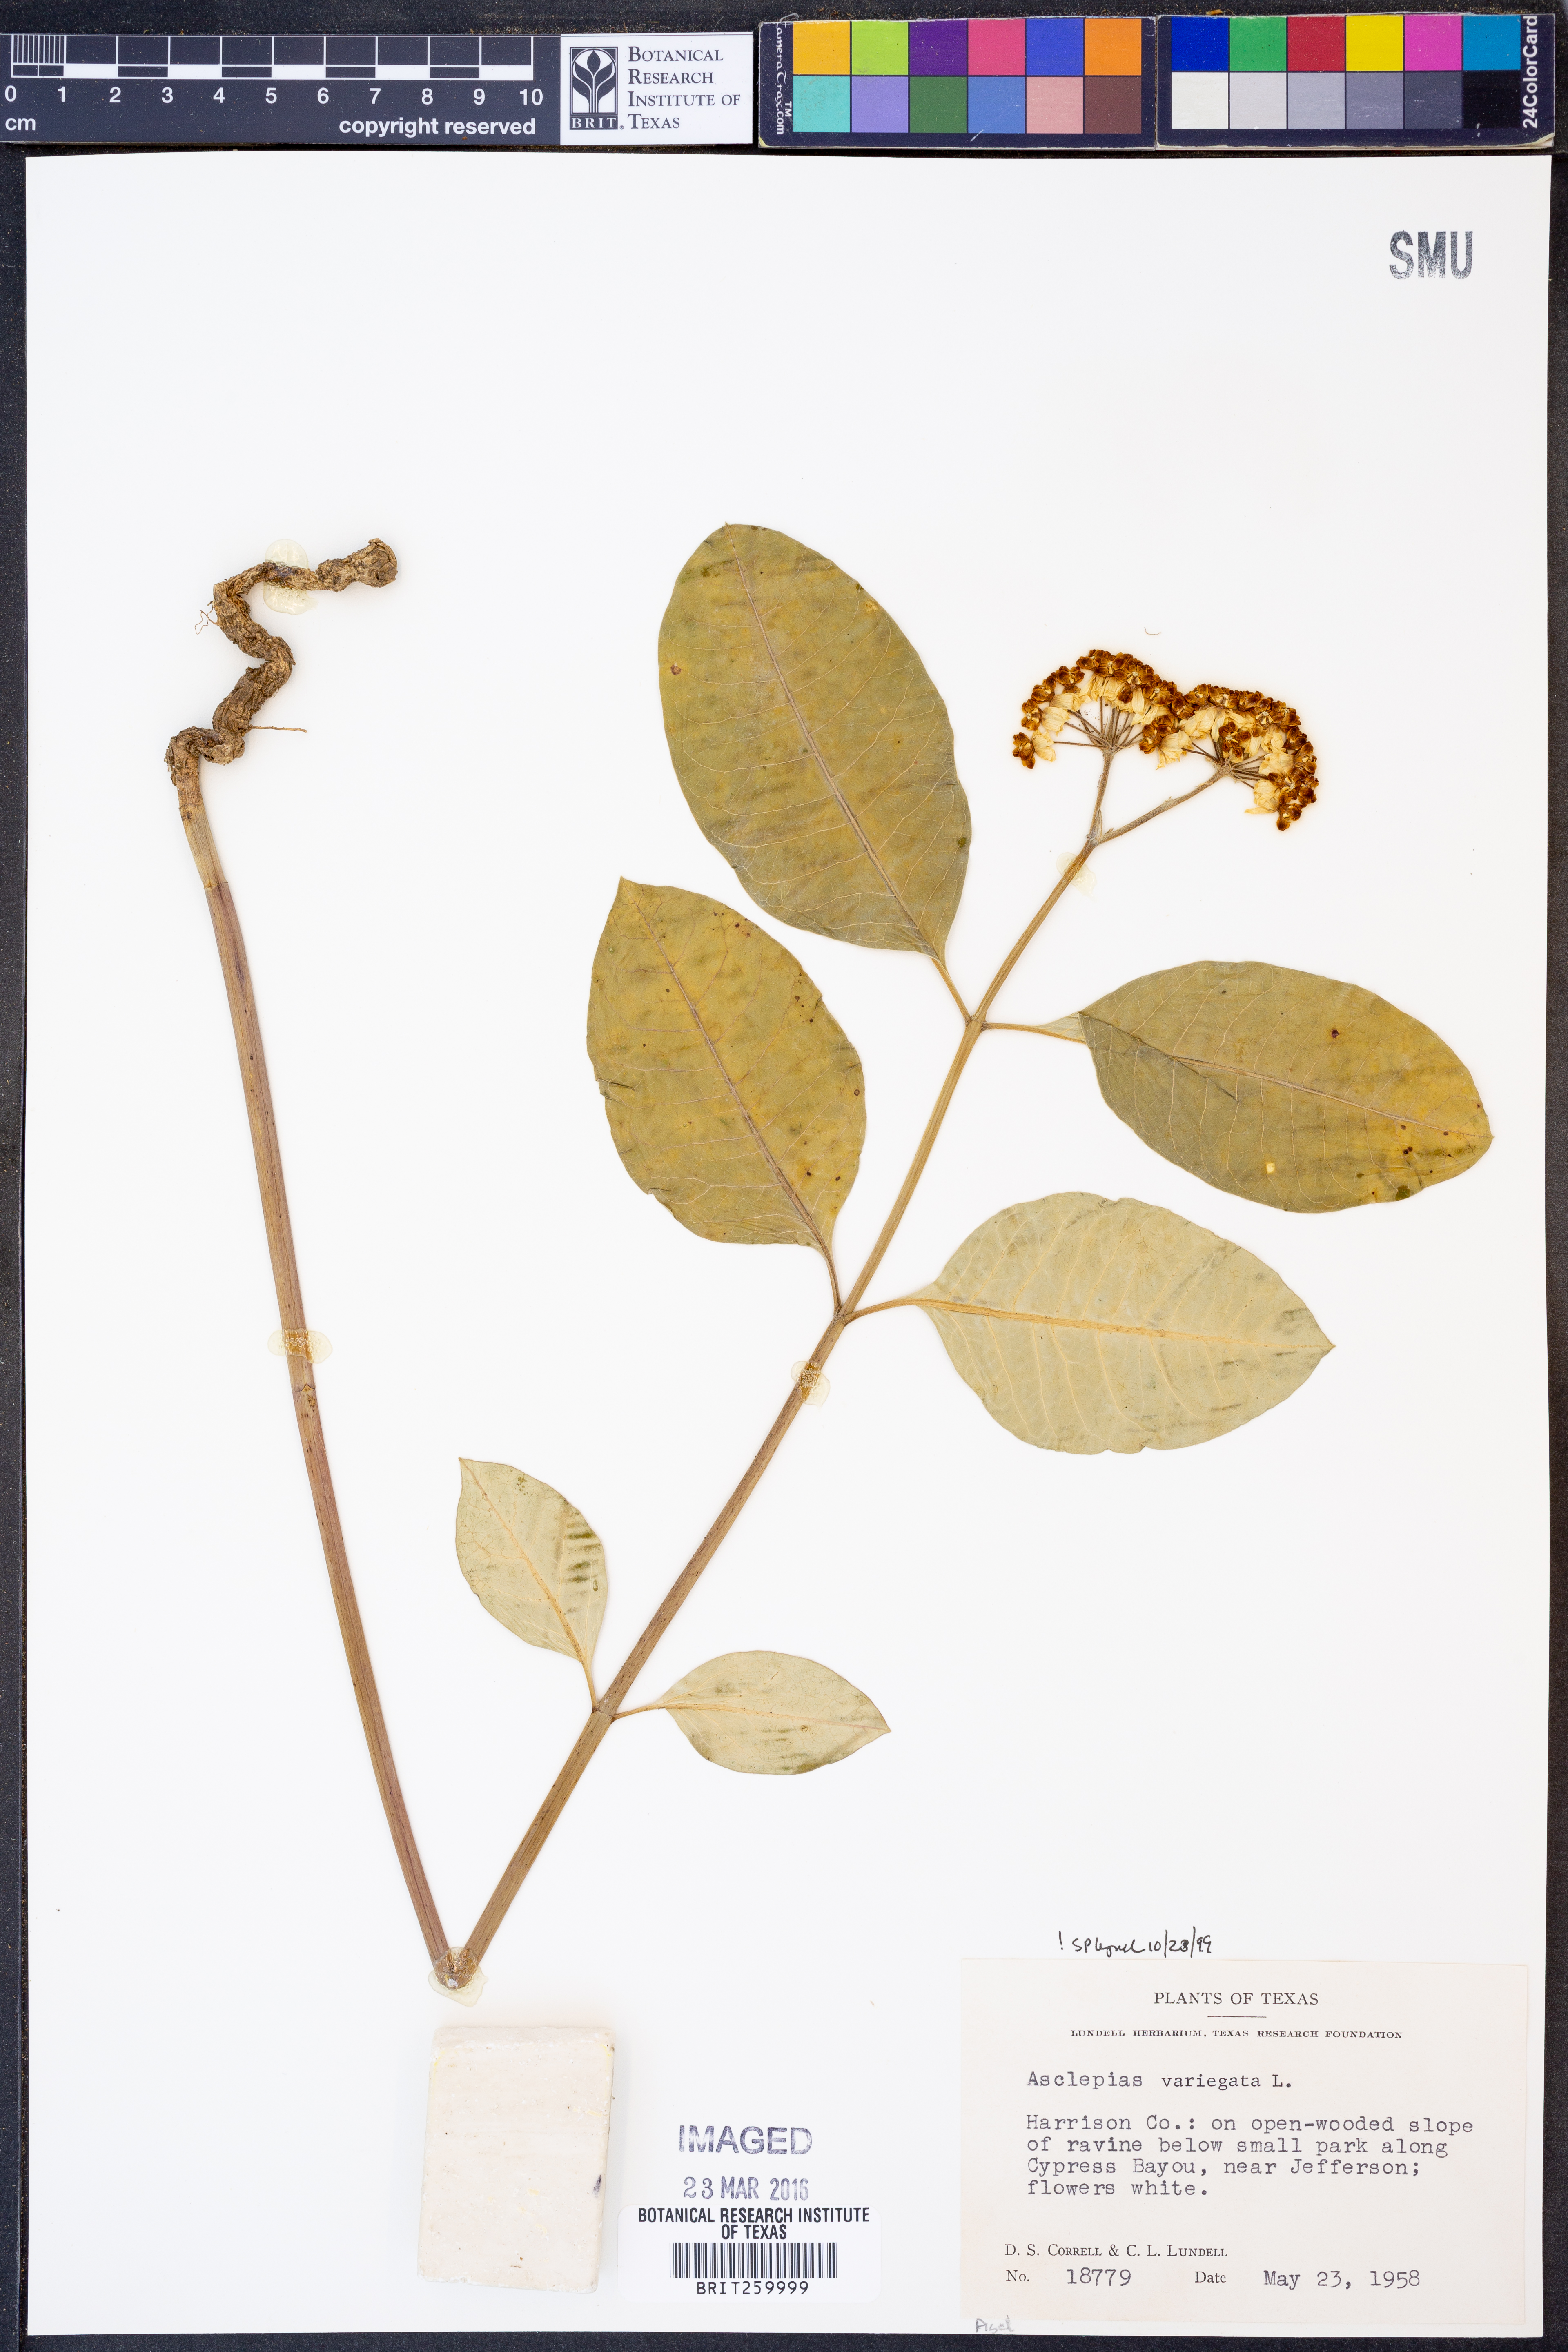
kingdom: Plantae
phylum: Tracheophyta
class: Magnoliopsida
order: Gentianales
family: Apocynaceae
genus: Asclepias
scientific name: Asclepias variegata
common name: Variegated milkweed
